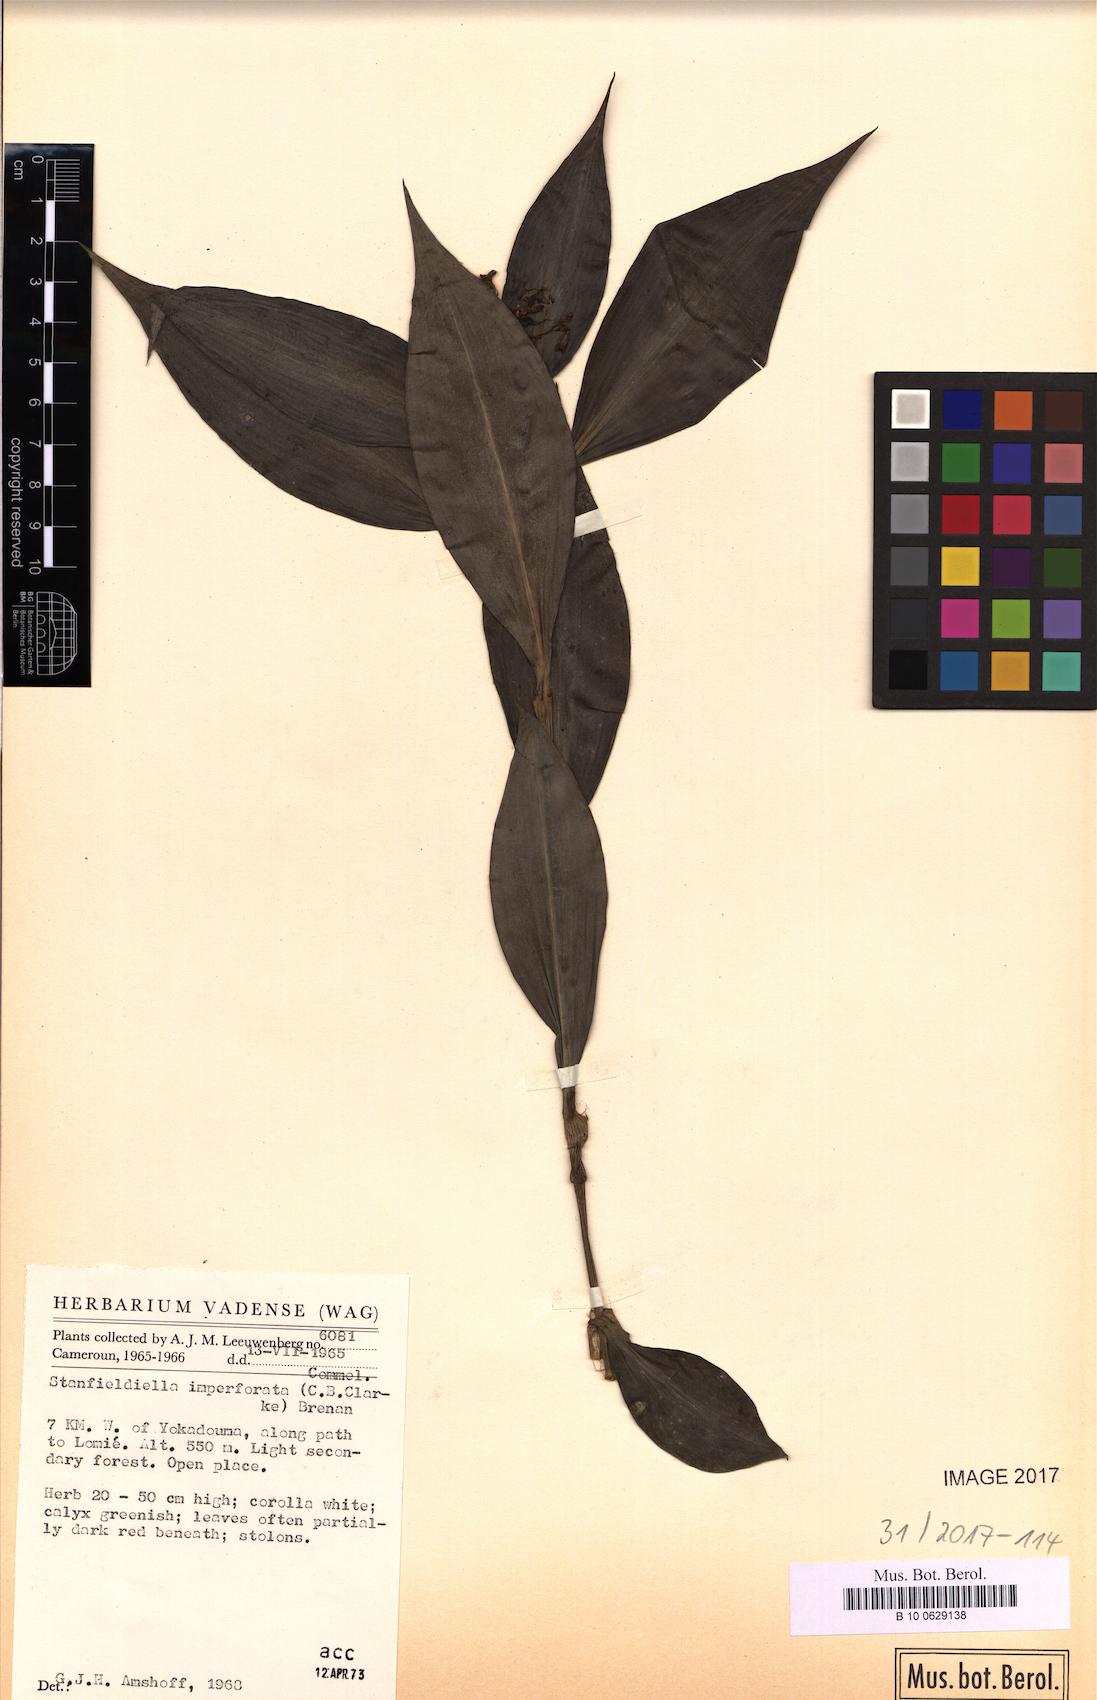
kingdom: Plantae
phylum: Tracheophyta
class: Liliopsida
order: Commelinales
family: Commelinaceae
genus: Stanfieldiella
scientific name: Stanfieldiella imperforata
